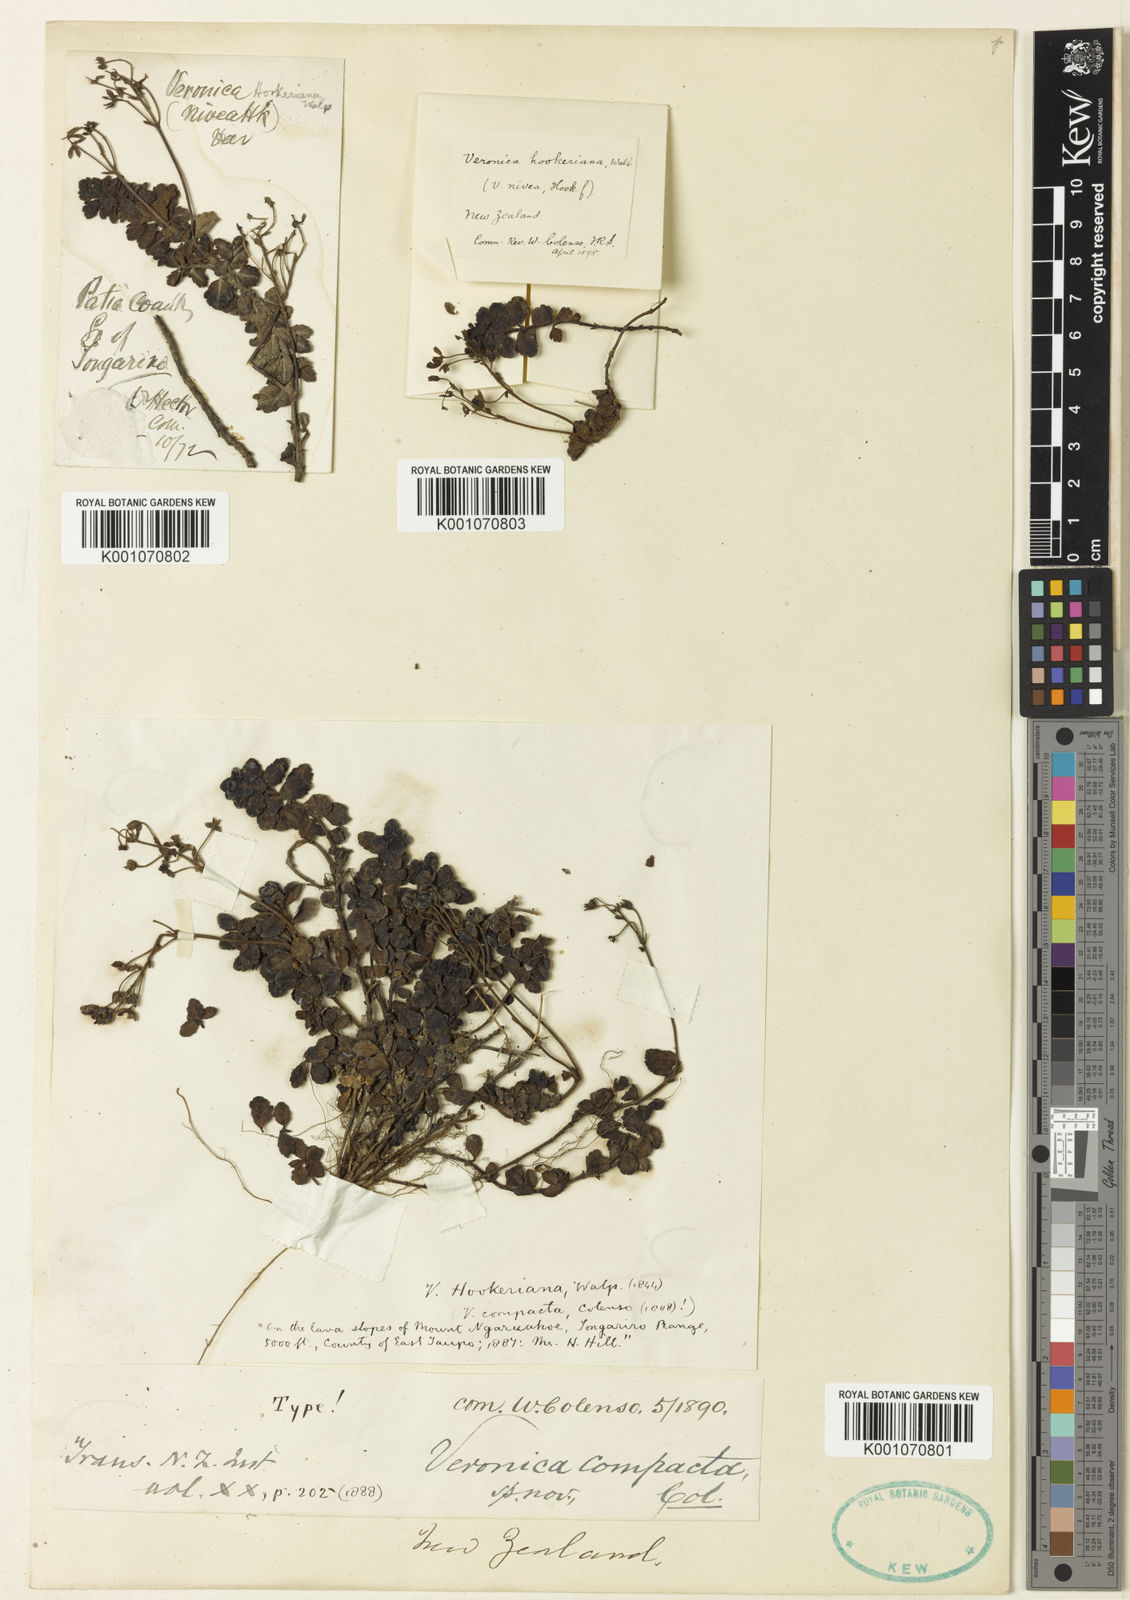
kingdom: Plantae
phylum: Tracheophyta
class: Magnoliopsida
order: Lamiales
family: Plantaginaceae
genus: Veronica
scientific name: Veronica hookeriana
